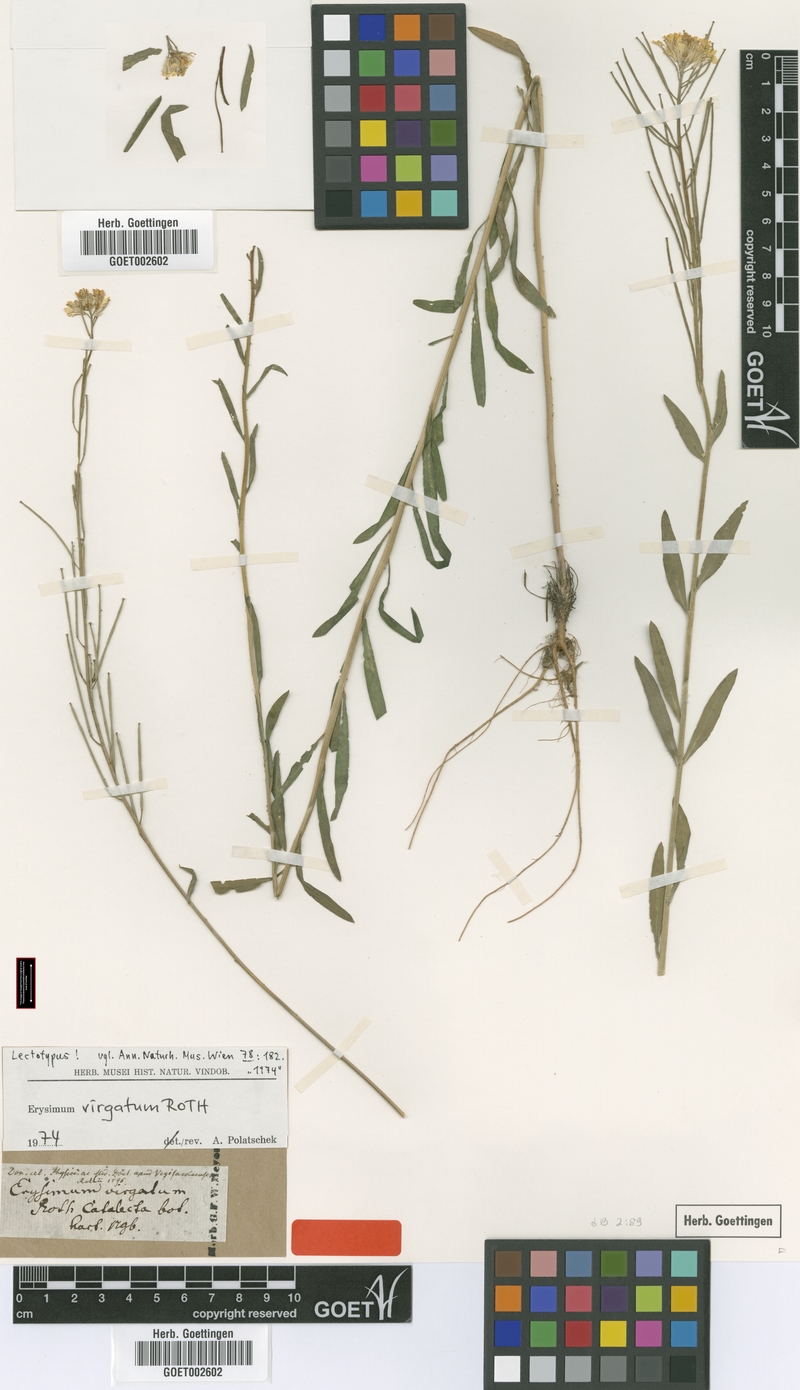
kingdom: Plantae
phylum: Tracheophyta
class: Magnoliopsida
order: Brassicales
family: Brassicaceae
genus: Erysimum
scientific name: Erysimum virgatum
